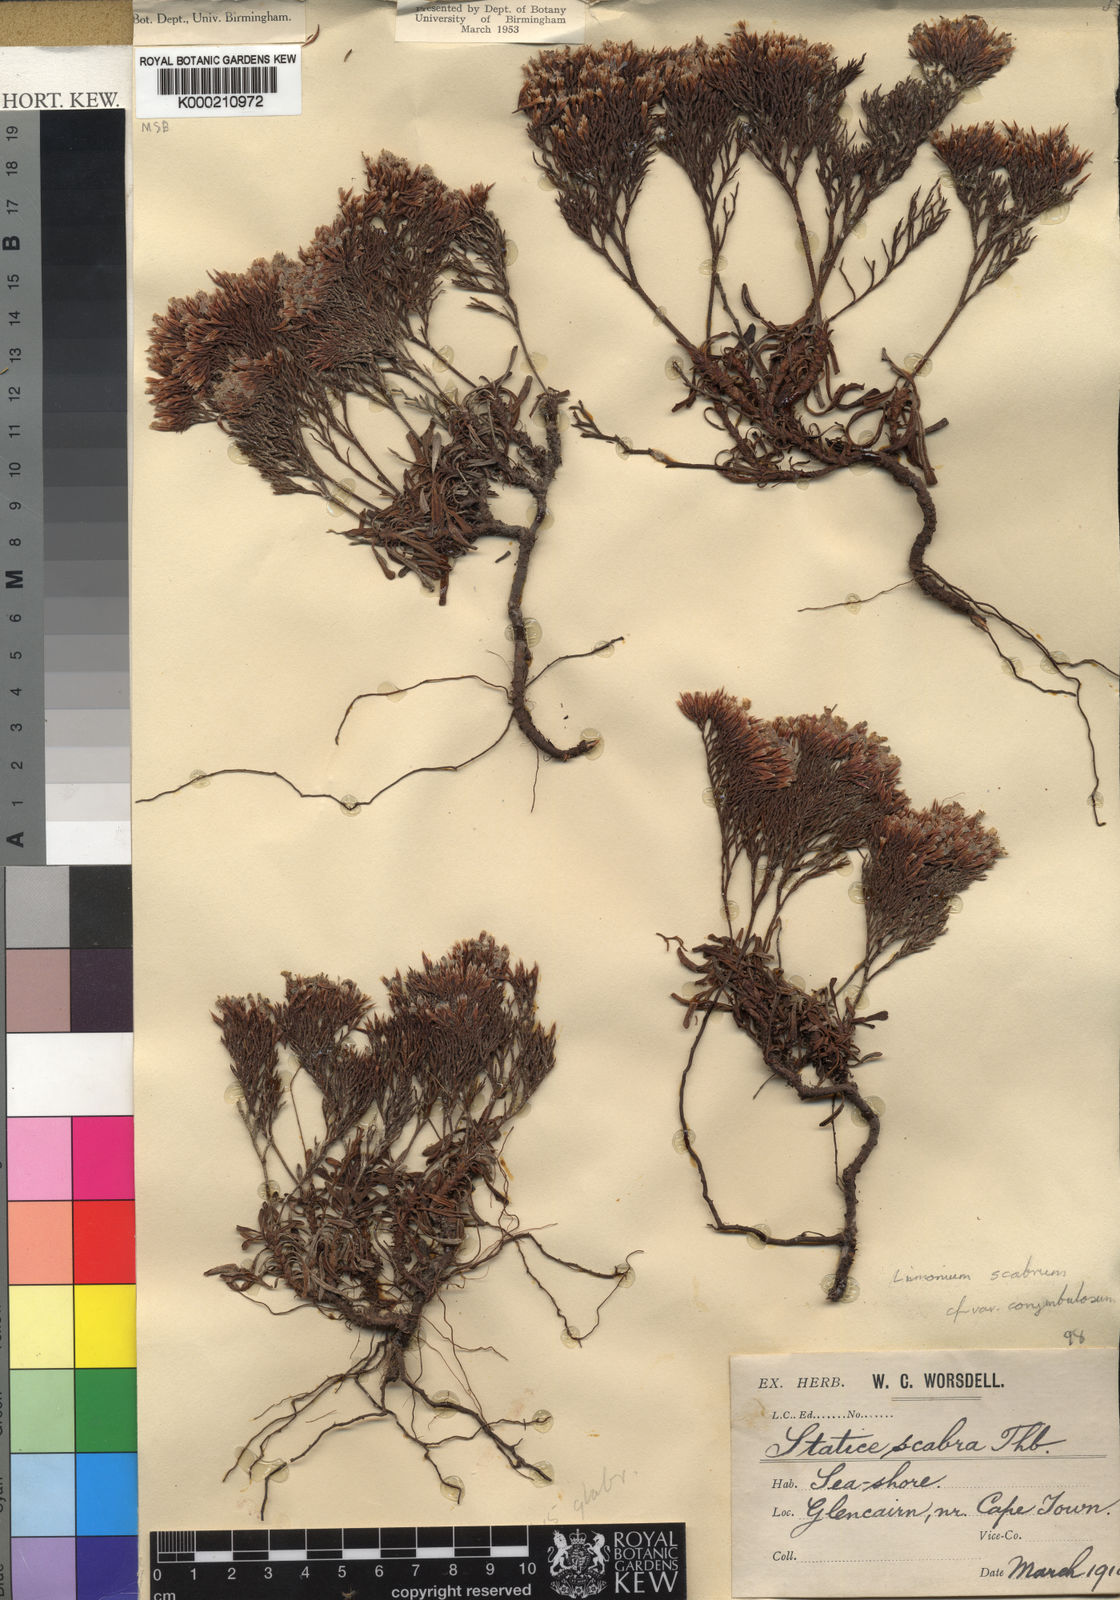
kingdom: Plantae
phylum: Tracheophyta
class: Magnoliopsida
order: Caryophyllales
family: Plumbaginaceae
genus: Limonium
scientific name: Limonium scabrum
